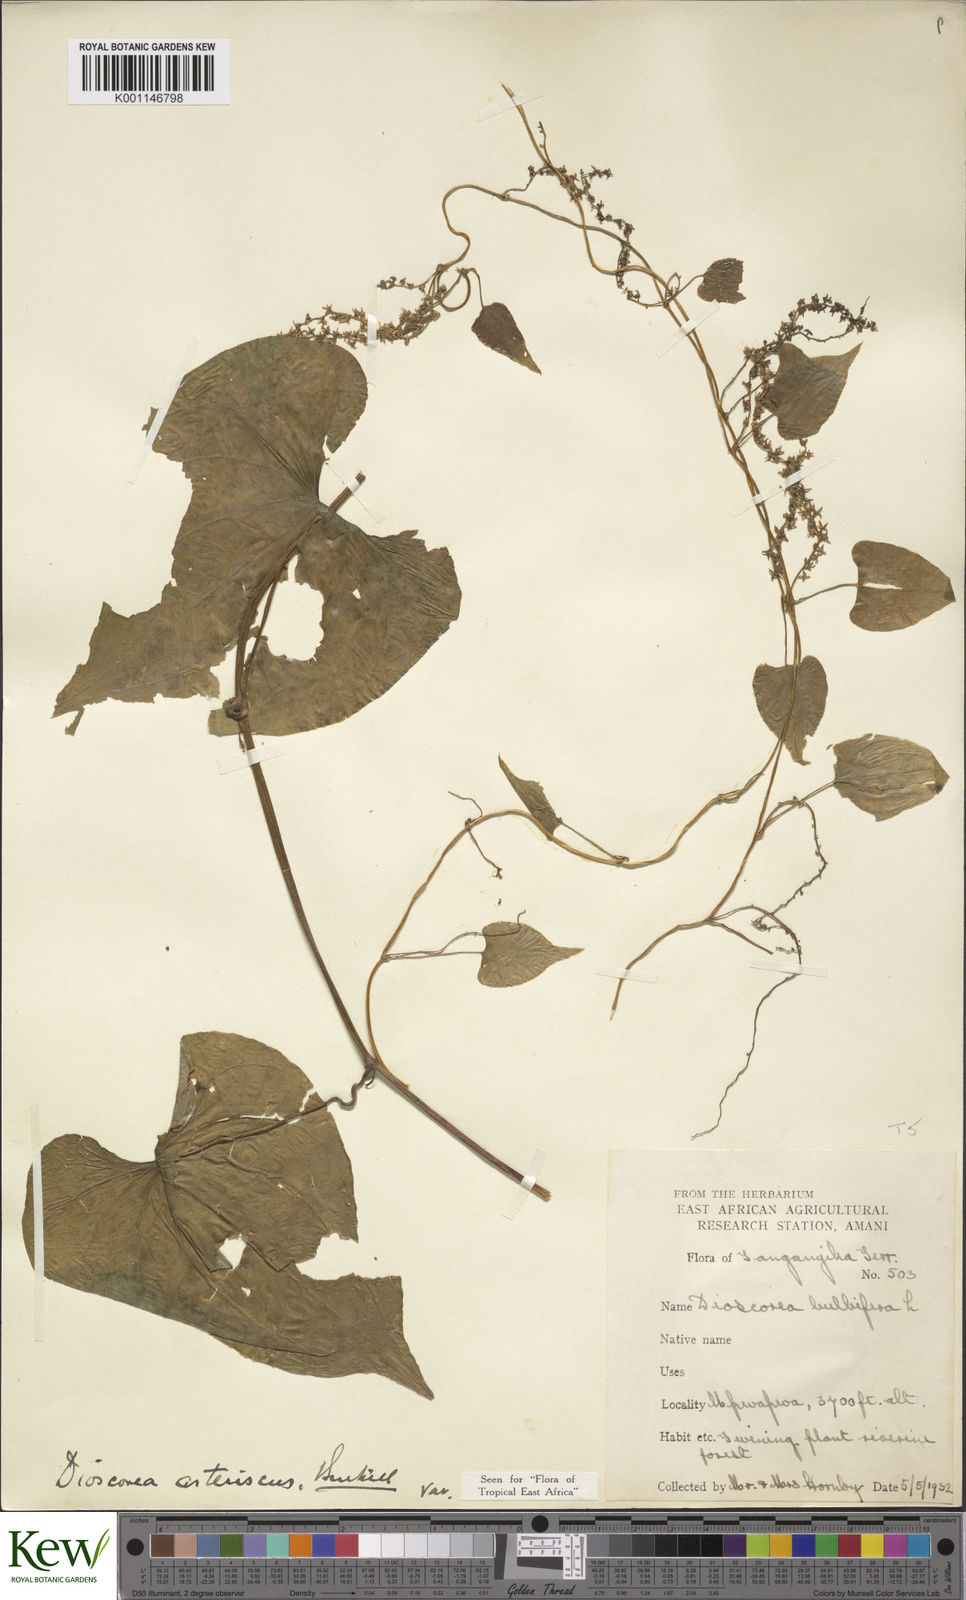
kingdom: Plantae
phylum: Tracheophyta
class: Liliopsida
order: Dioscoreales
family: Dioscoreaceae
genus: Dioscorea
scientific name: Dioscorea asteriscus
